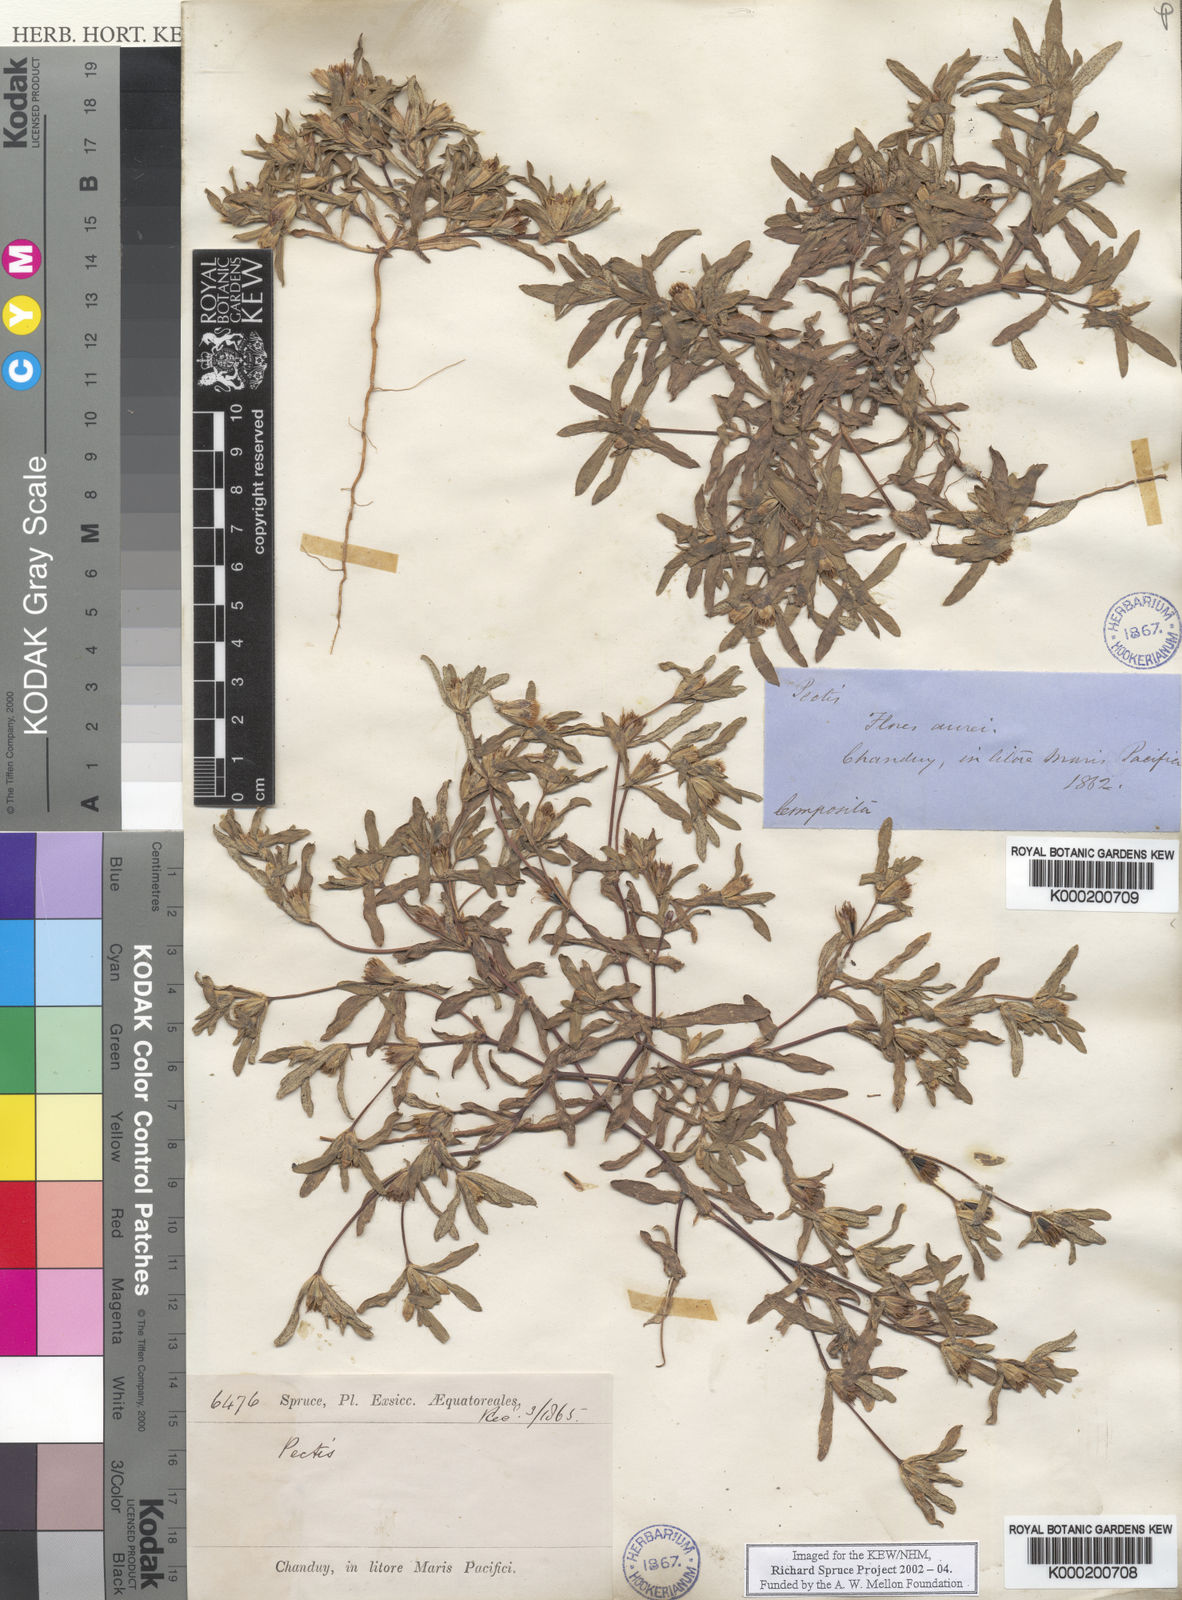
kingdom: Plantae
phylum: Tracheophyta
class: Magnoliopsida
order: Asterales
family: Asteraceae
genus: Pectis
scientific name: Pectis
